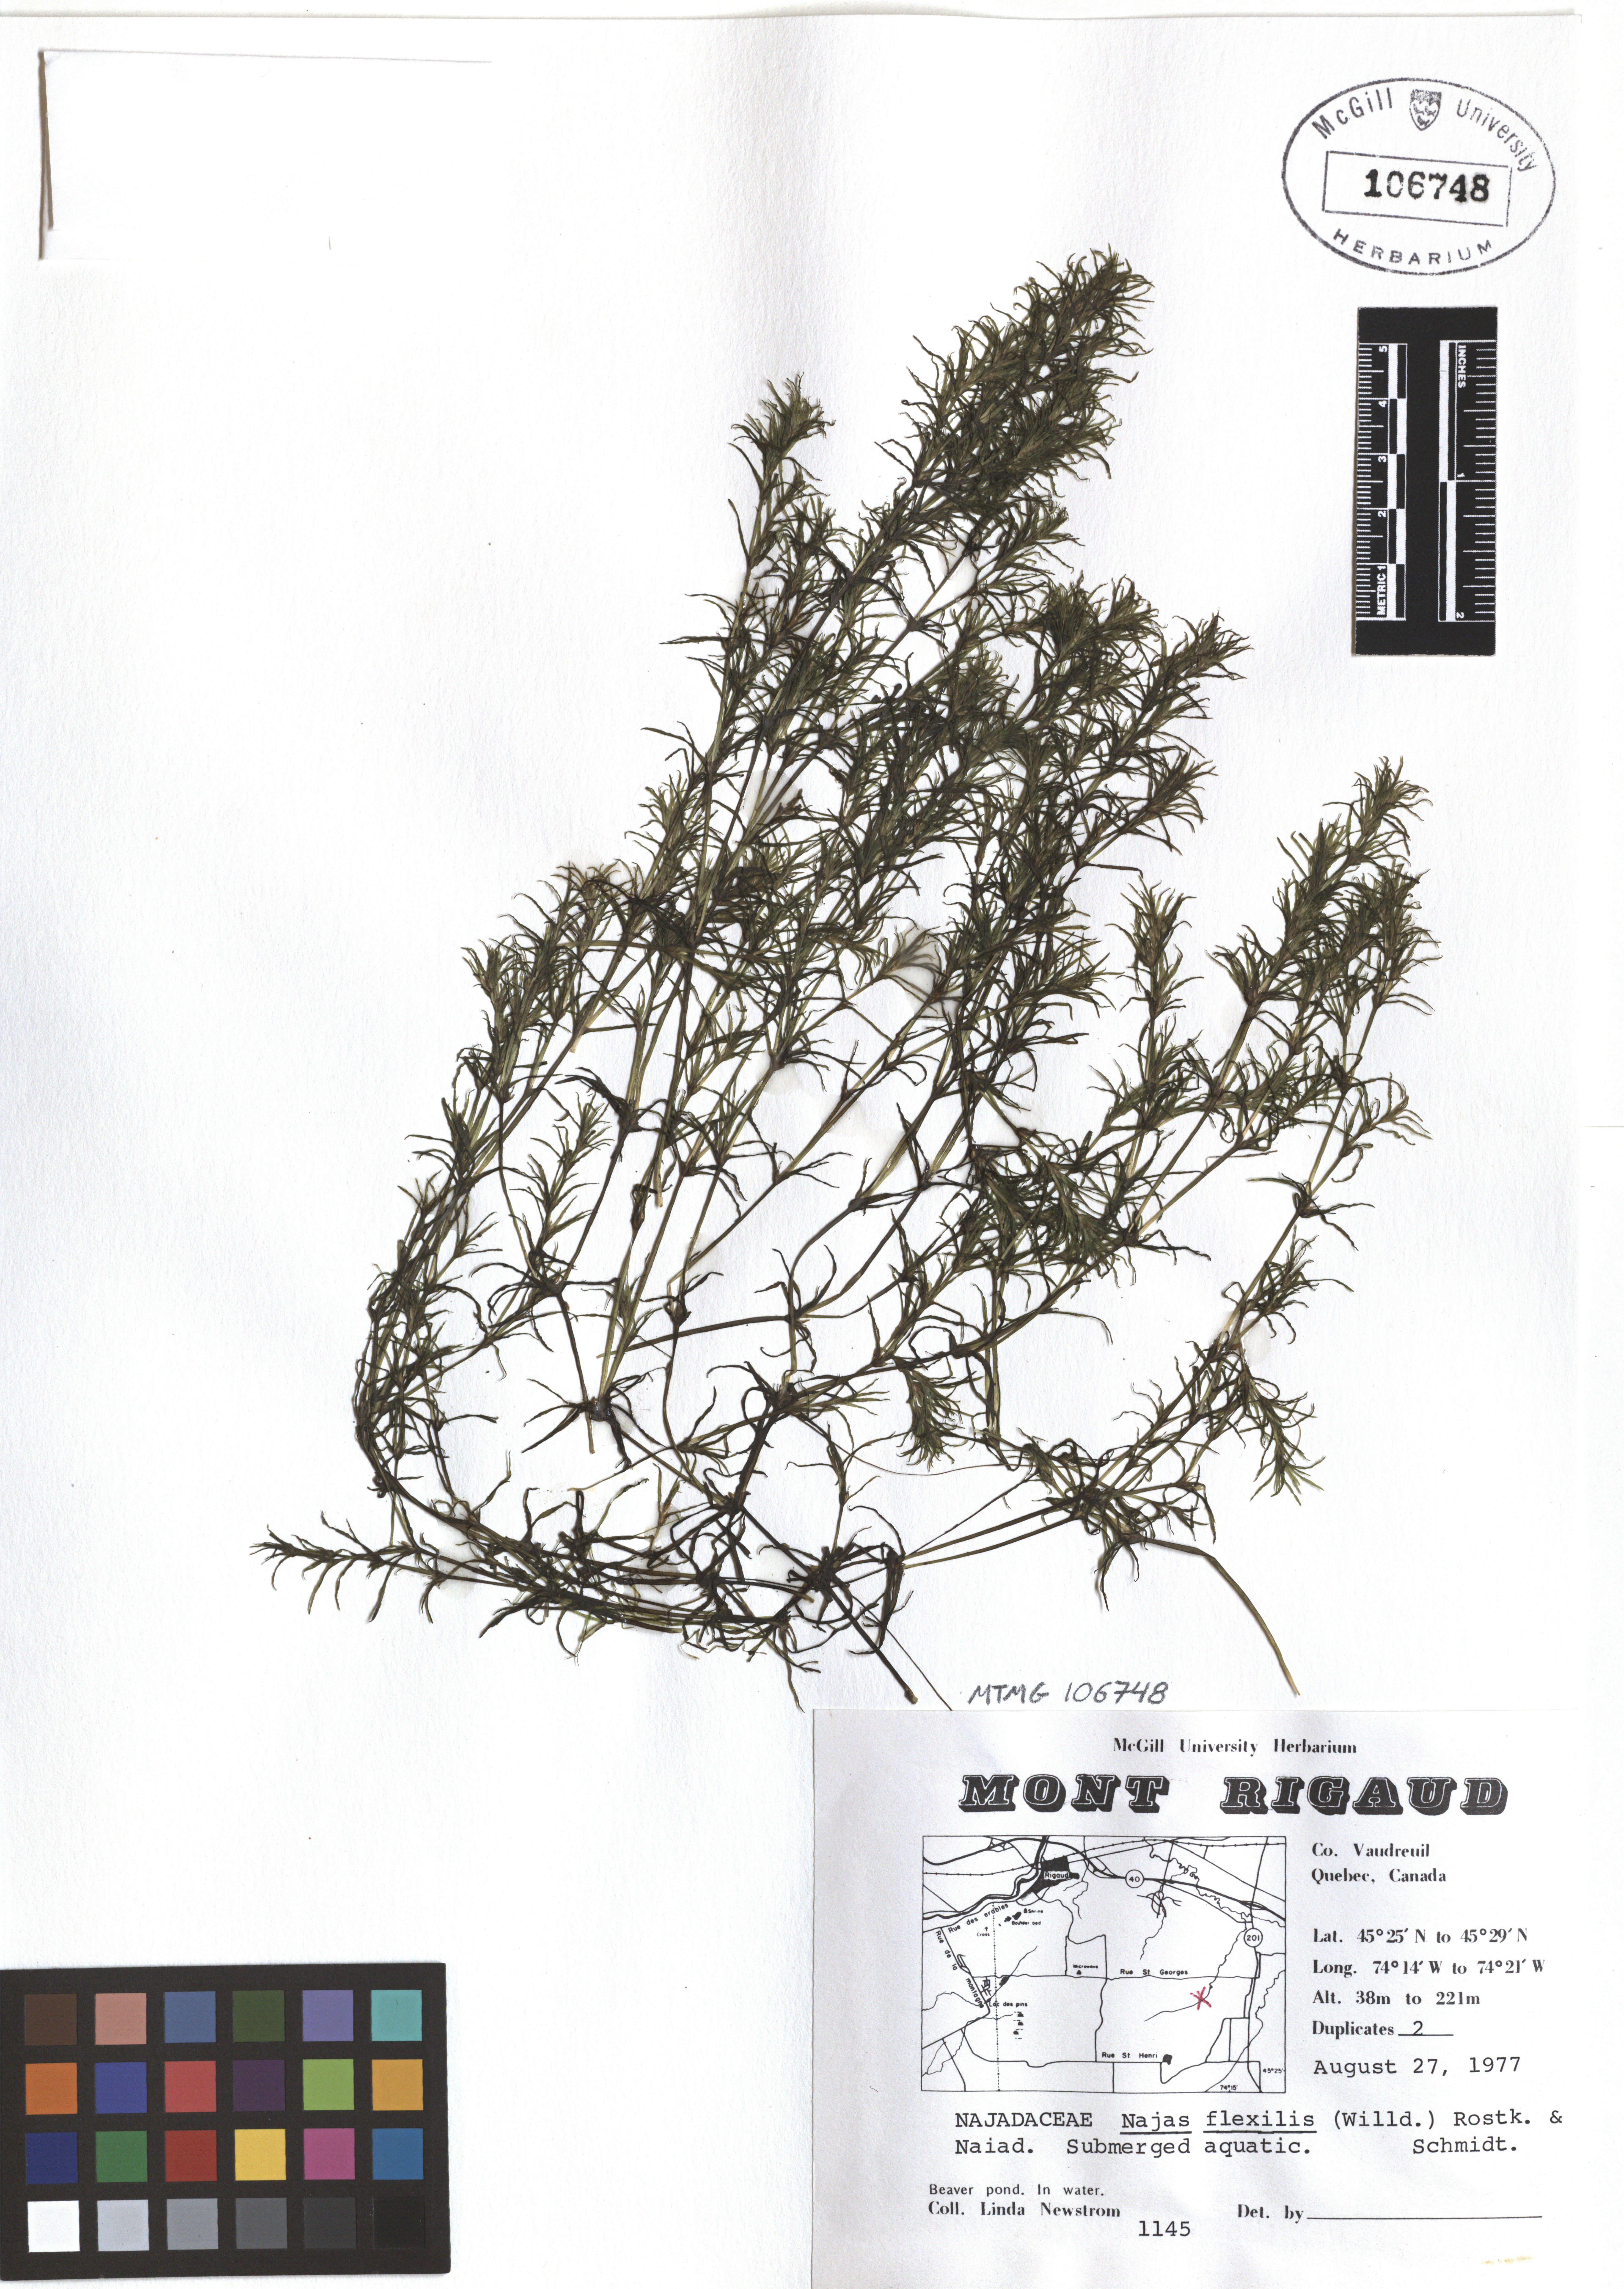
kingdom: Plantae
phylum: Tracheophyta
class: Liliopsida
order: Alismatales
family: Hydrocharitaceae
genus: Najas
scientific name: Najas guadalupensis
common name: Southern naiad
